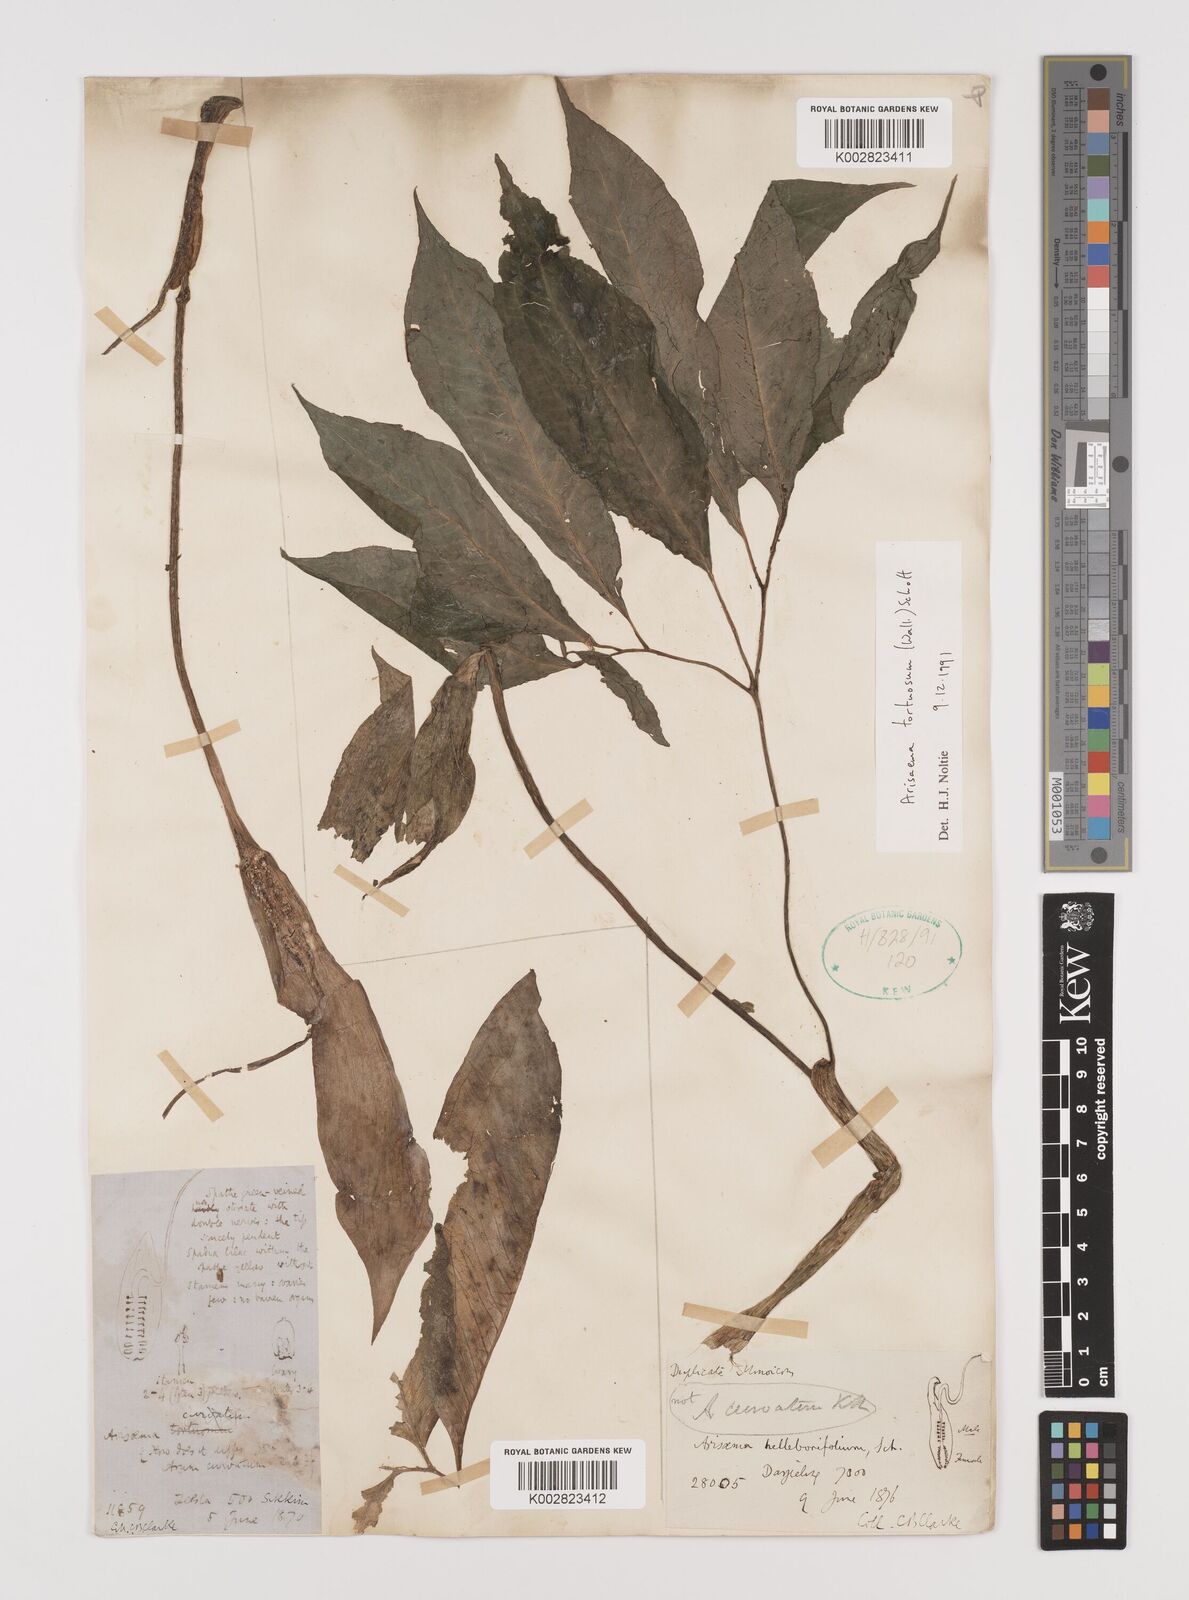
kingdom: Plantae
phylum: Tracheophyta
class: Liliopsida
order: Alismatales
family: Araceae
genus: Arisaema
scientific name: Arisaema tortuosum
